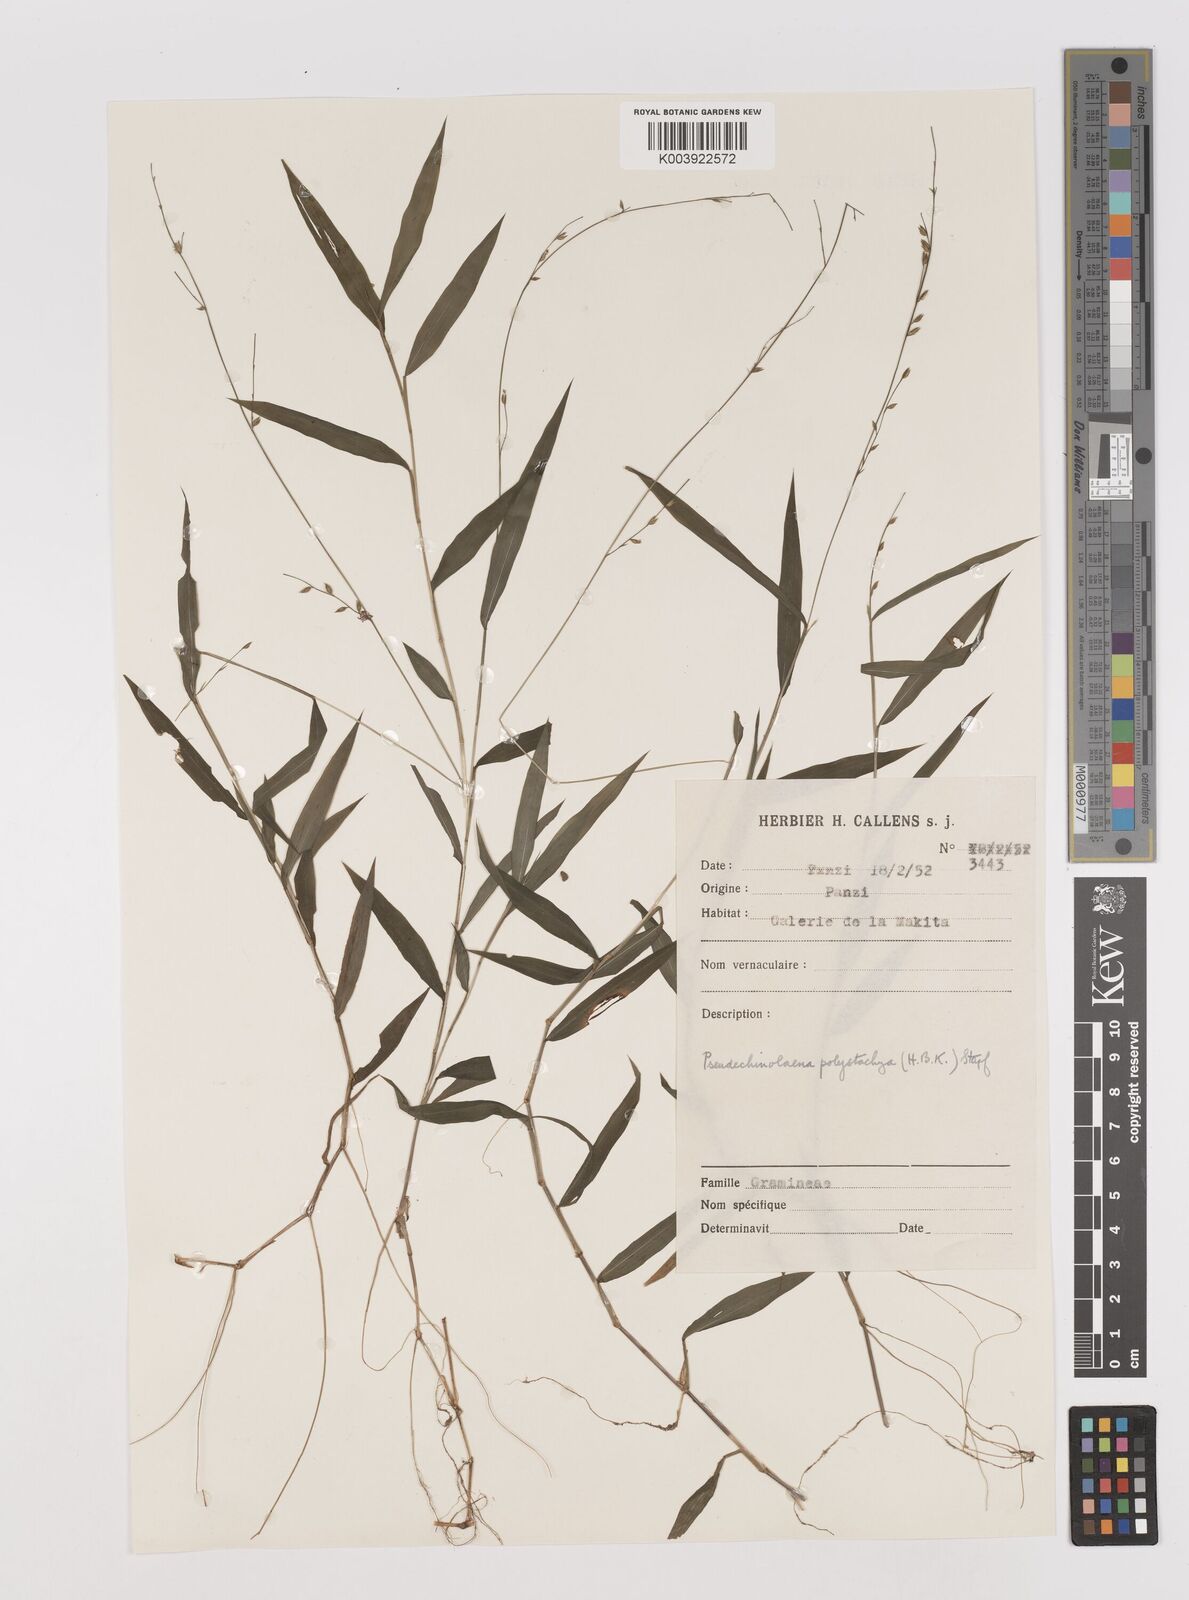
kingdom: Plantae
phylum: Tracheophyta
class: Liliopsida
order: Poales
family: Poaceae
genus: Pseudechinolaena
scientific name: Pseudechinolaena polystachya
